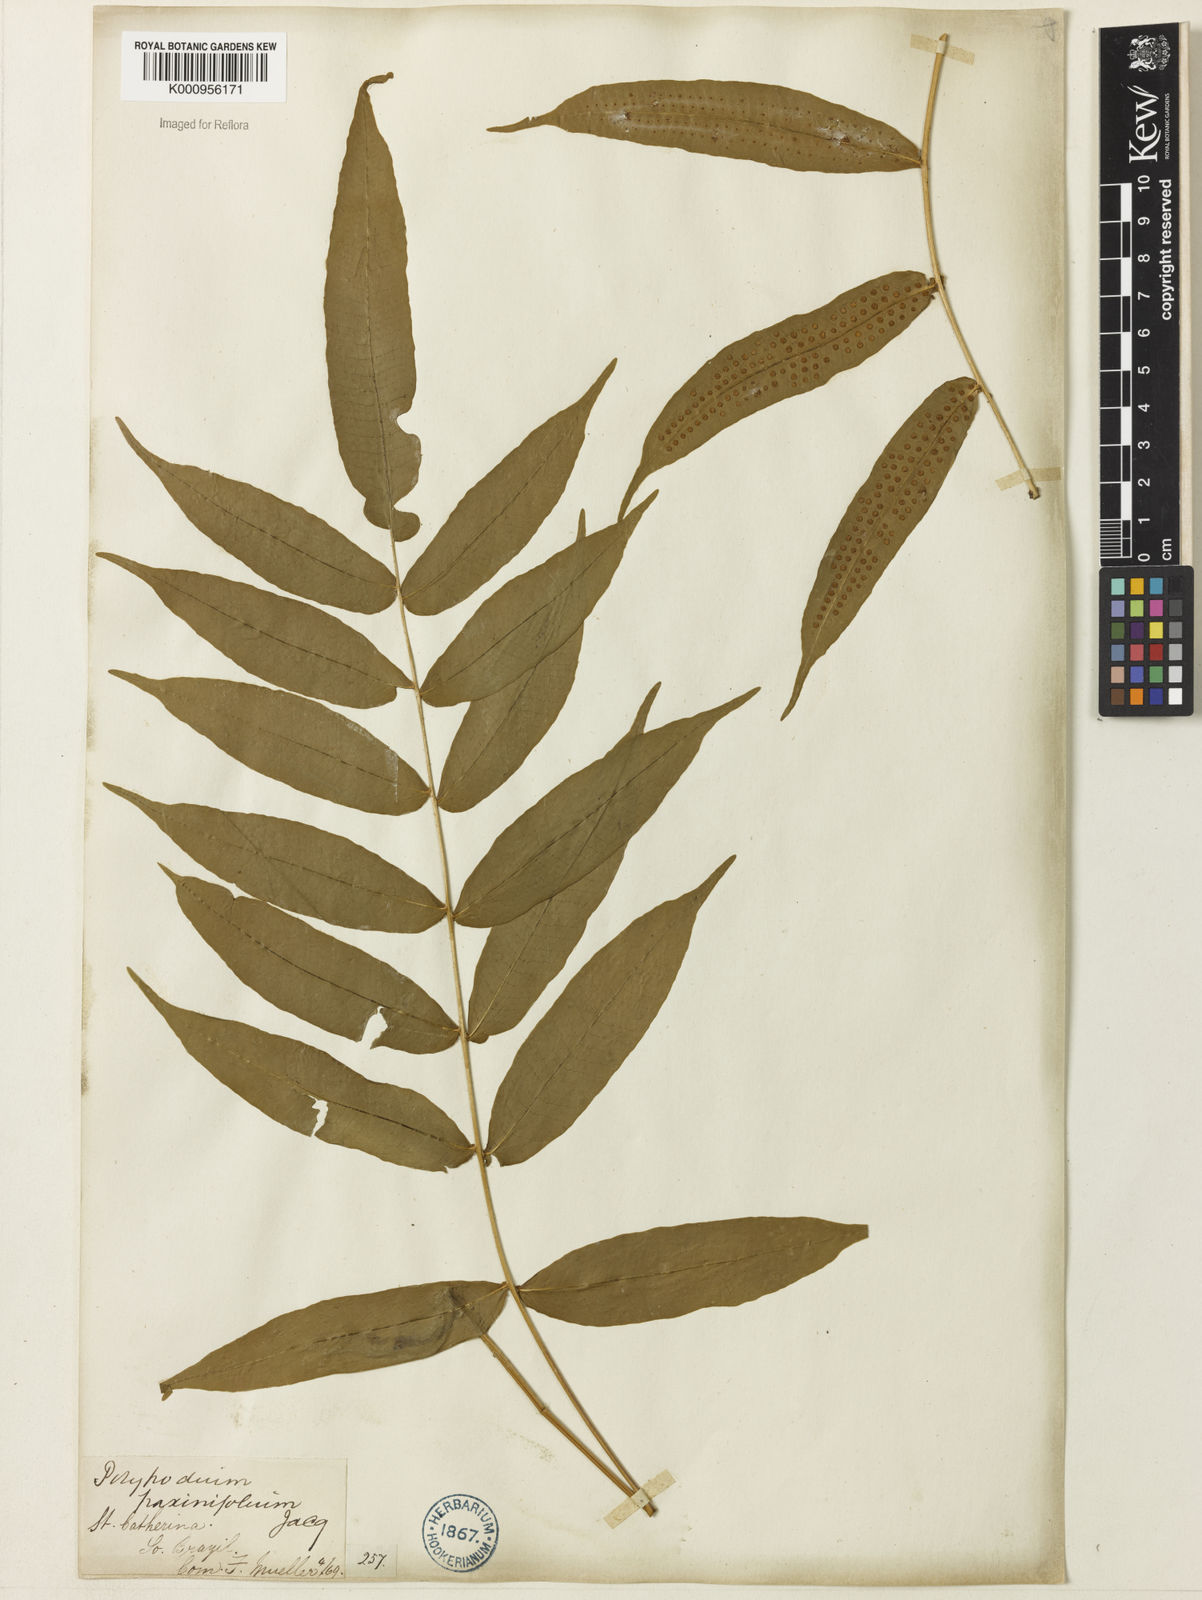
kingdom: Plantae
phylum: Tracheophyta
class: Polypodiopsida
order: Polypodiales
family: Polypodiaceae
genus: Serpocaulon
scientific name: Serpocaulon fraxinifolium
